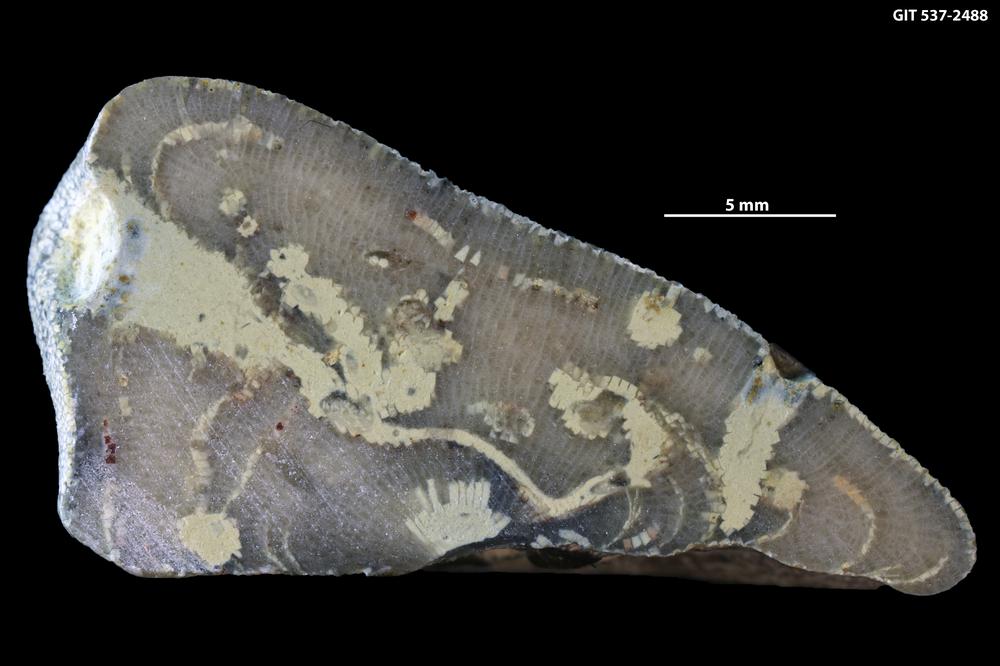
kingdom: Animalia
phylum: Bryozoa
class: Stenolaemata
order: Trepostomatida
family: Heterotrypidae
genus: Stigmatella
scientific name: Stigmatella massalis
